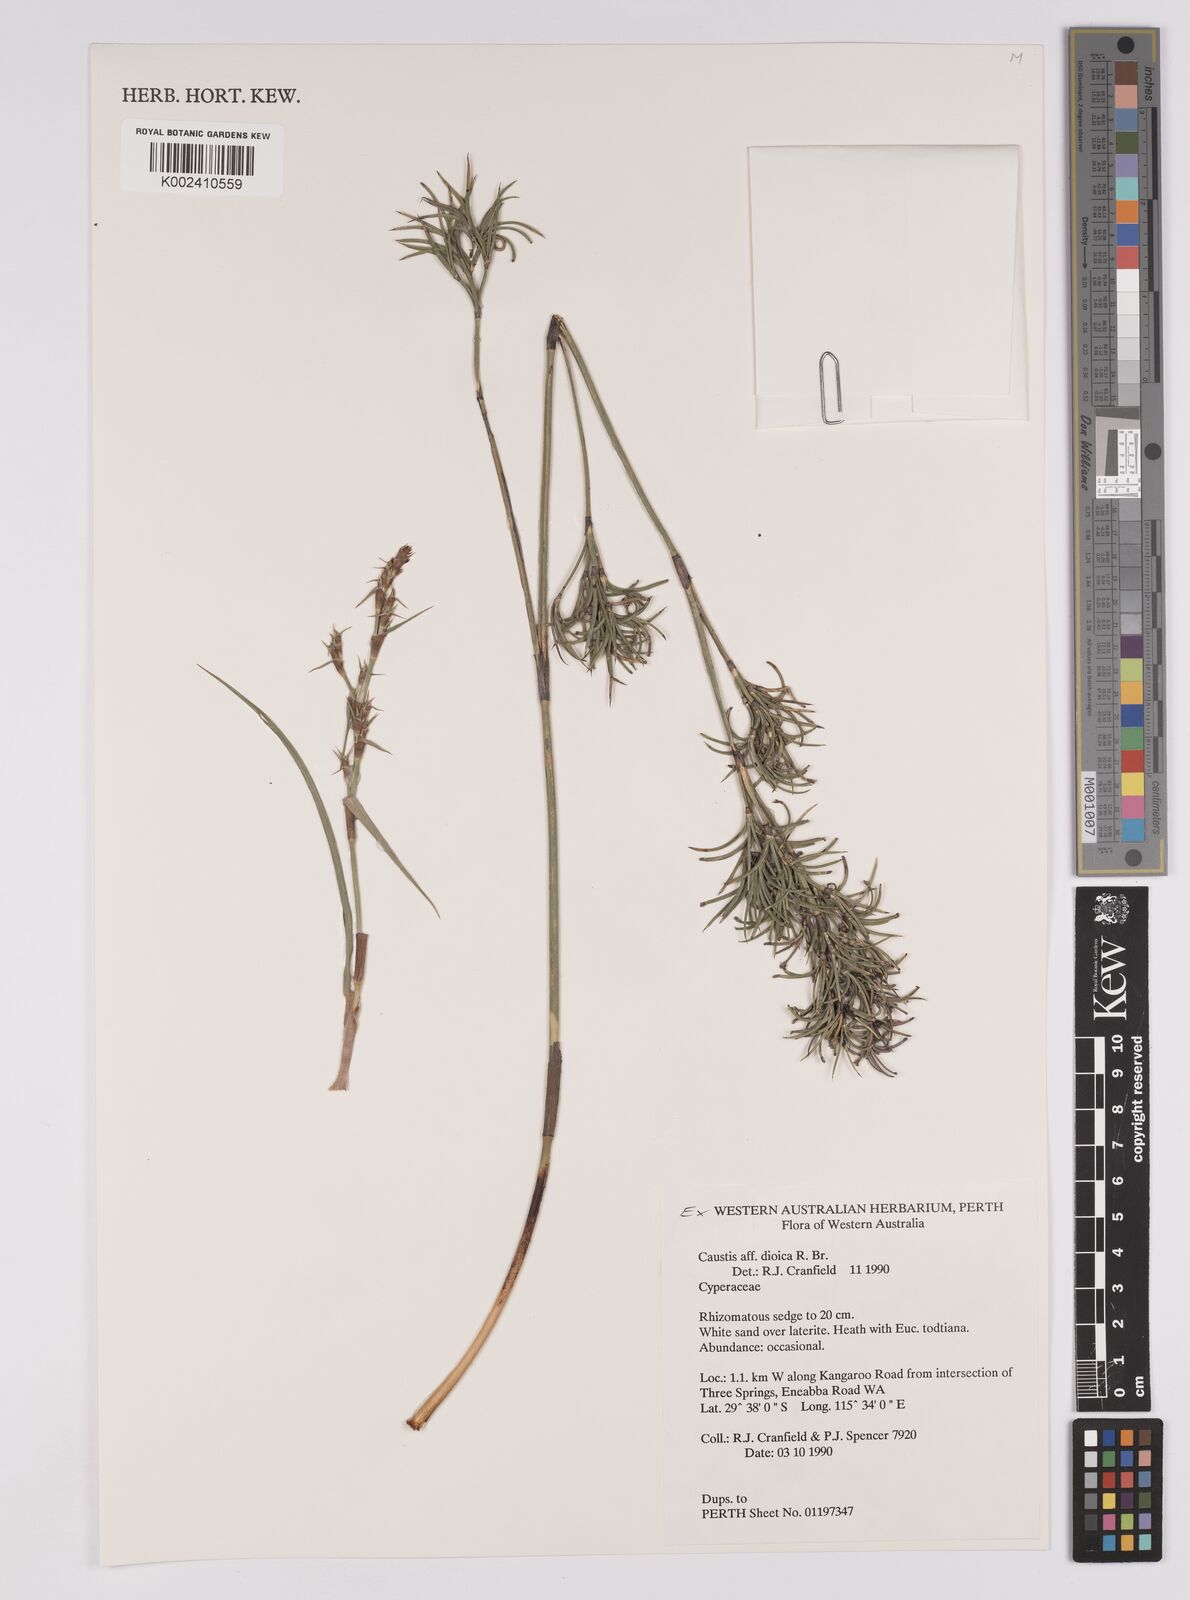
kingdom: Plantae
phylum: Tracheophyta
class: Liliopsida
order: Poales
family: Cyperaceae
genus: Caustis
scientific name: Caustis dioica
